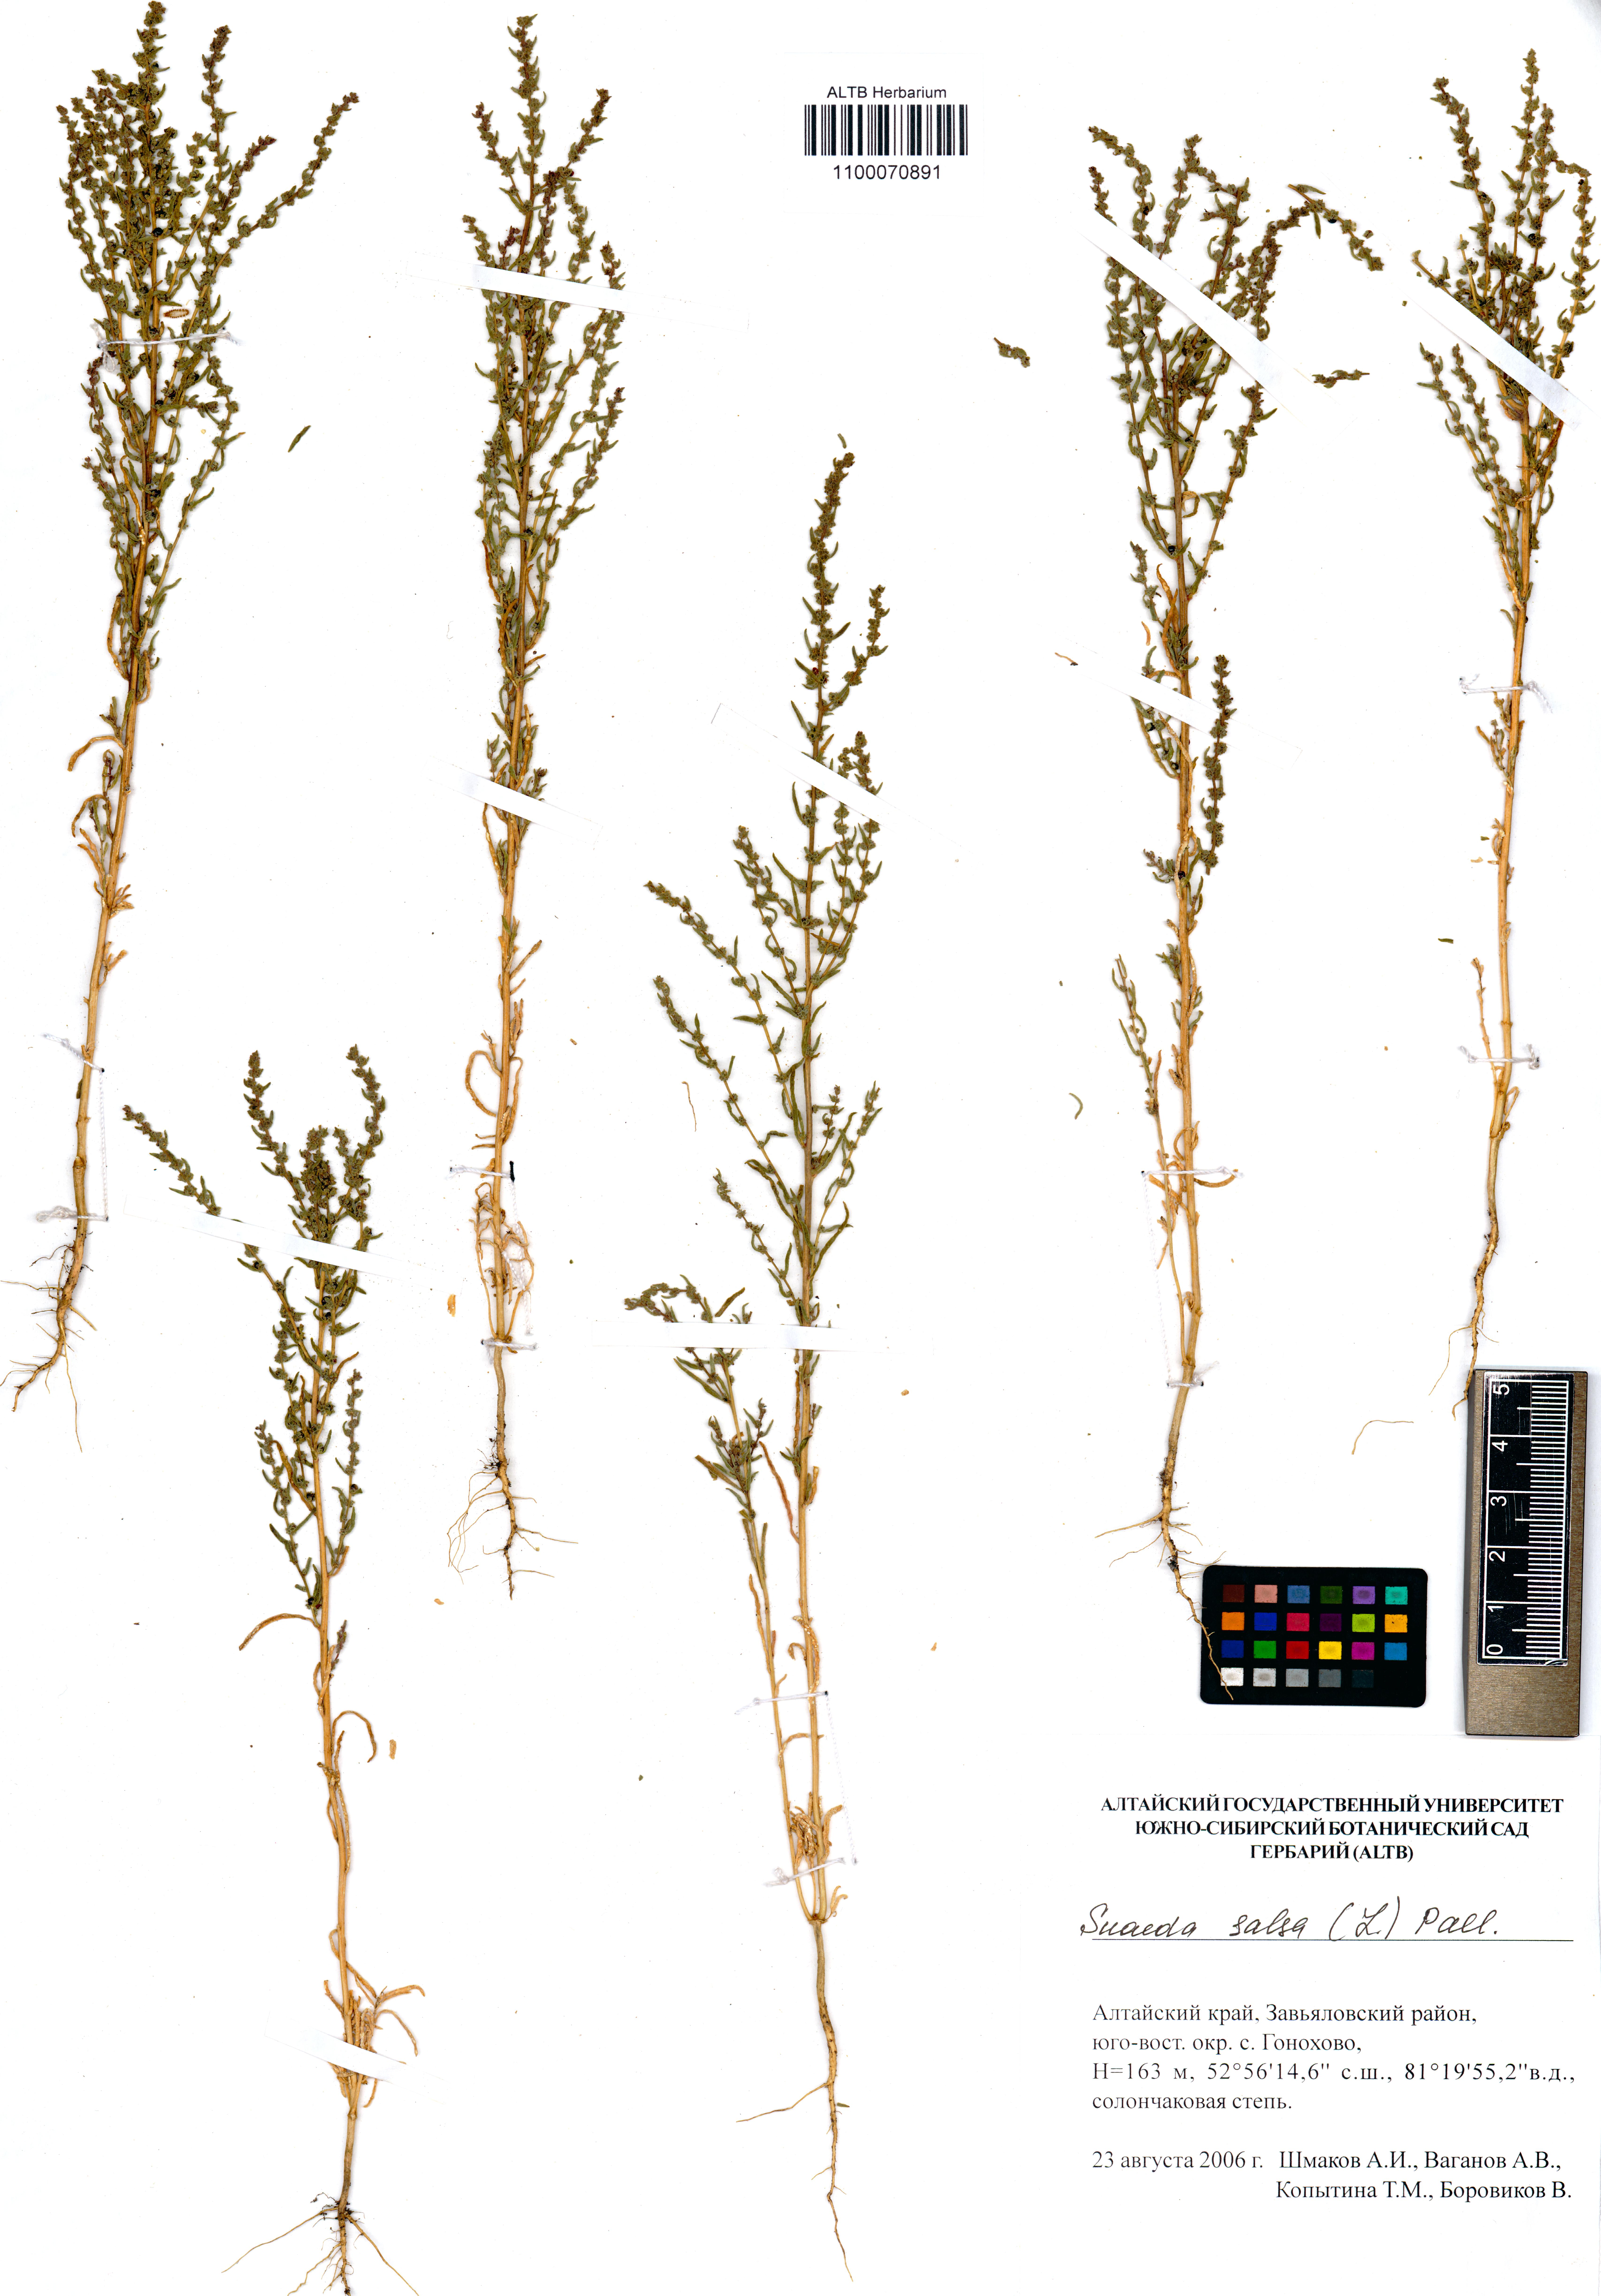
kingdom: Plantae
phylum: Tracheophyta
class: Magnoliopsida
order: Caryophyllales
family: Amaranthaceae
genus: Suaeda
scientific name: Suaeda salsa
